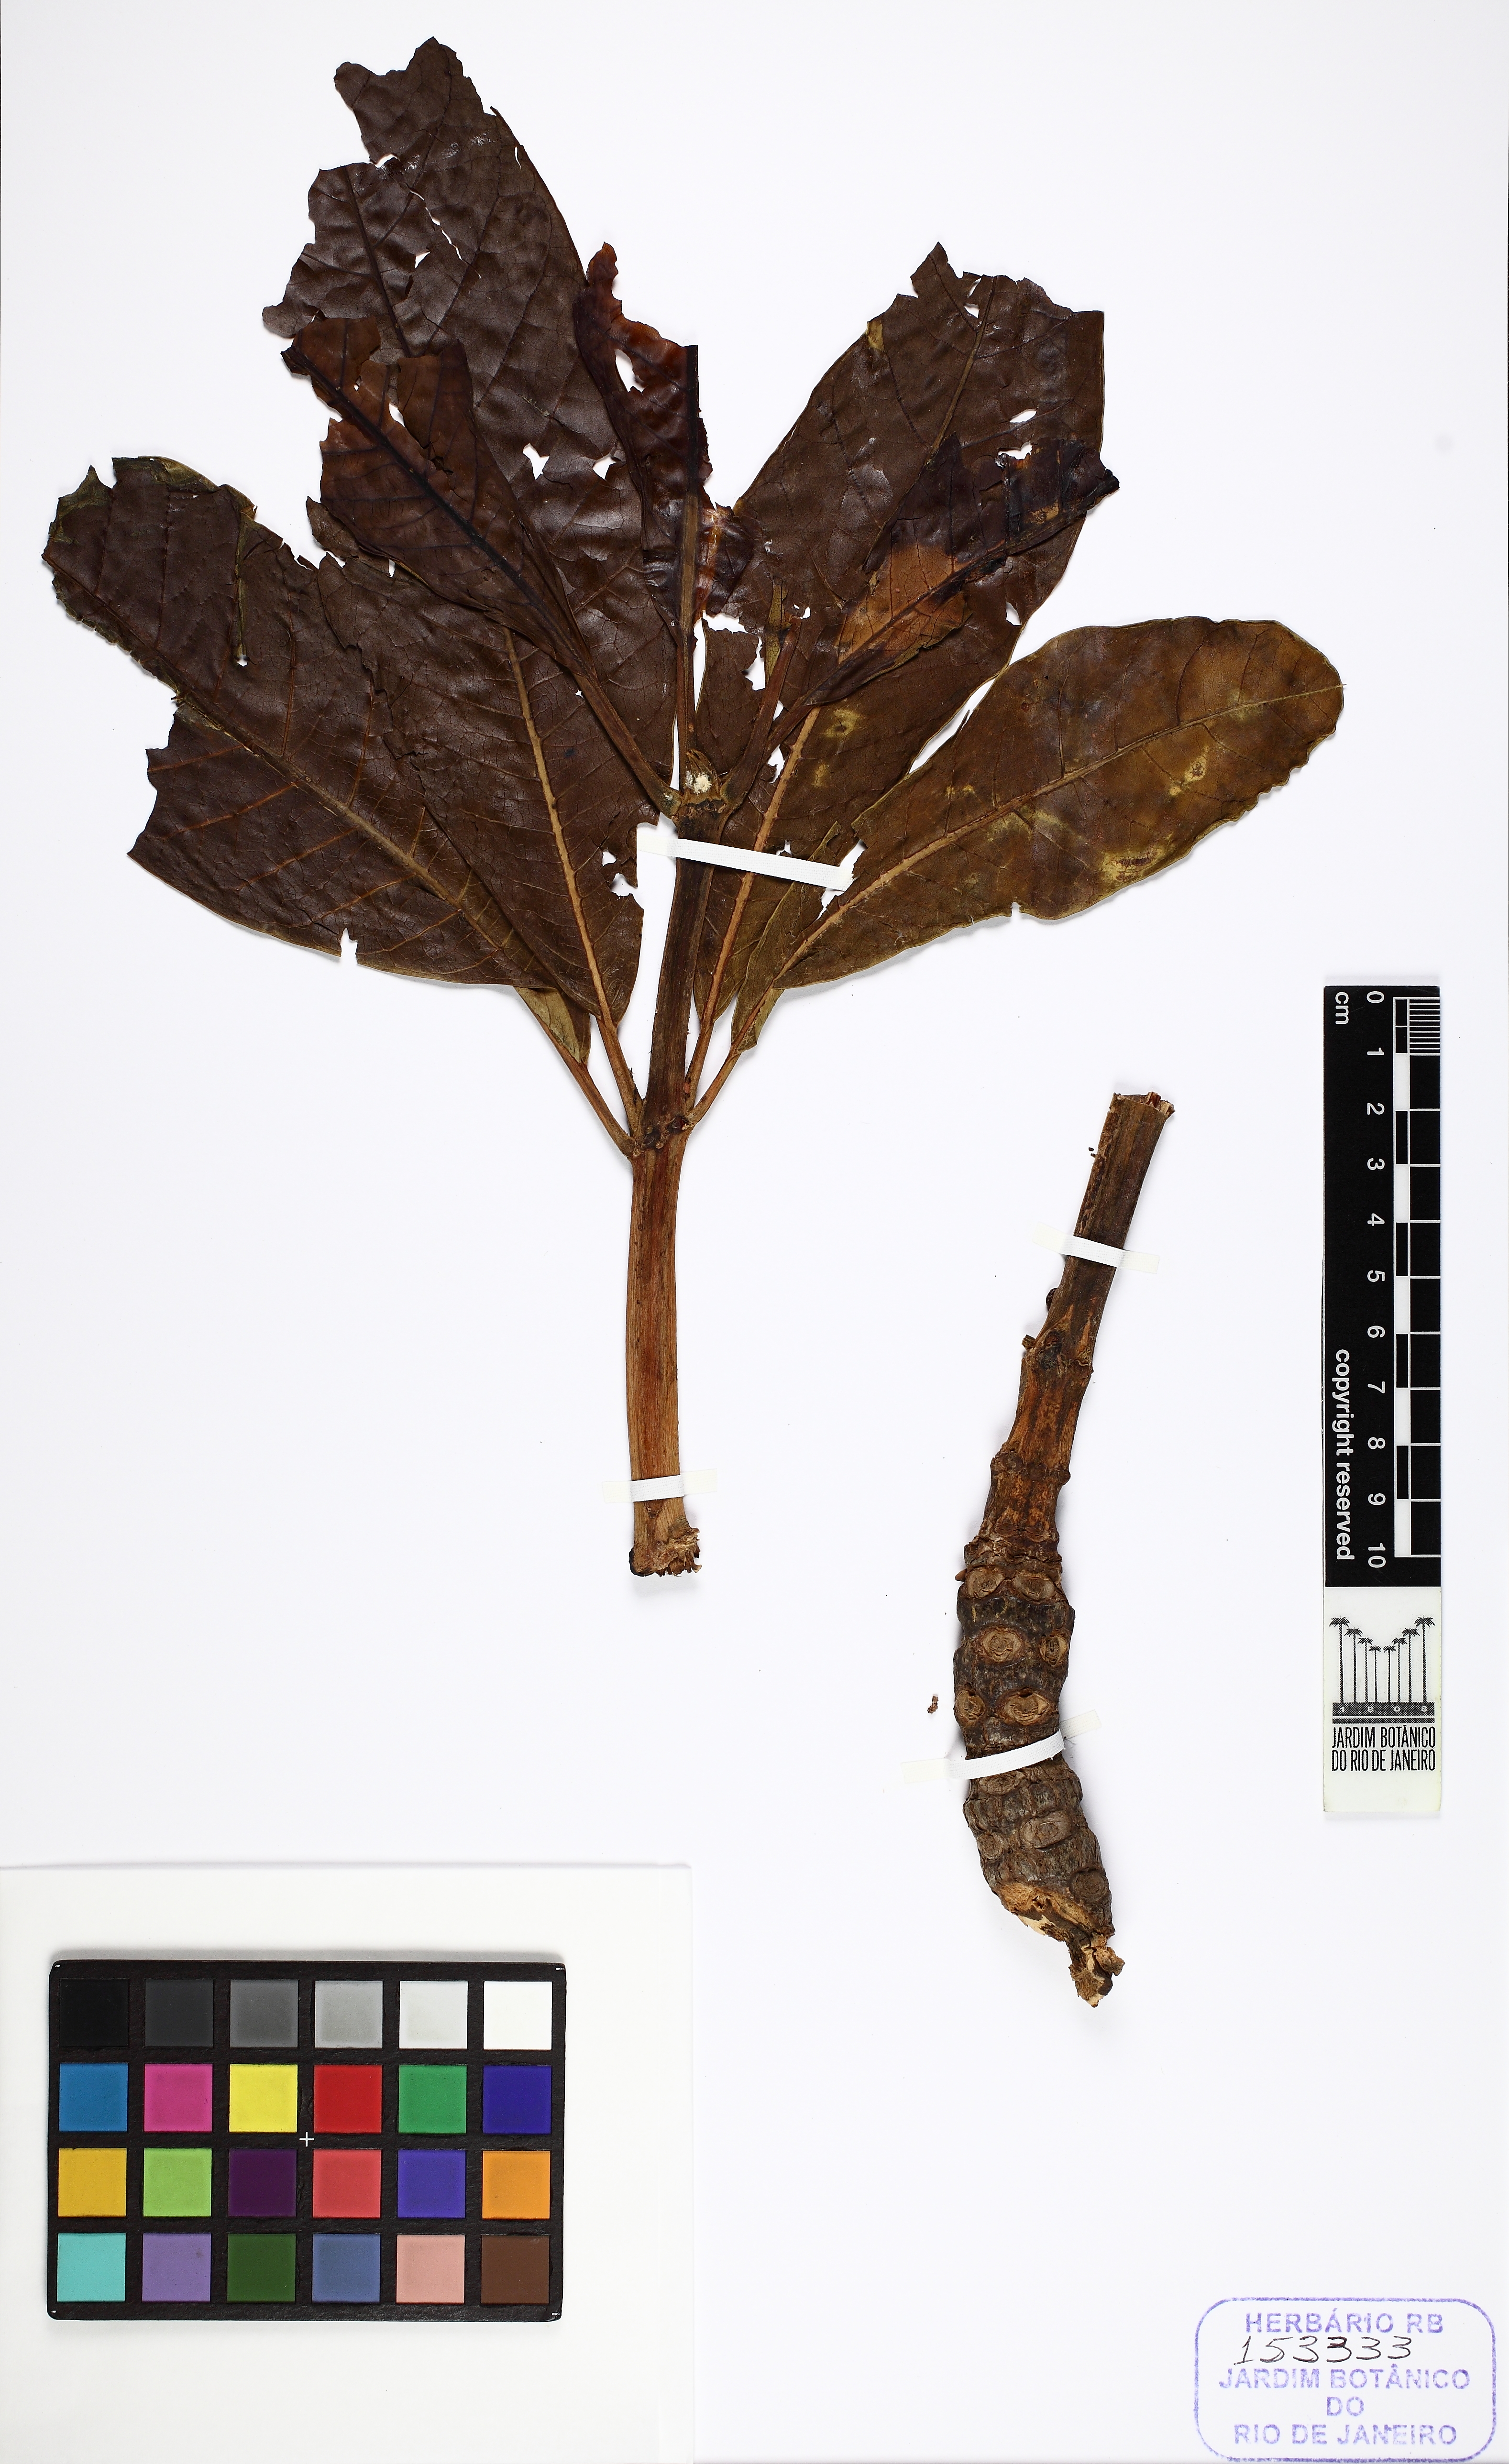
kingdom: Plantae
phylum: Tracheophyta
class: Magnoliopsida
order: Myrtales
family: Vochysiaceae
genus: Salvertia
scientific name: Salvertia convallariodora
